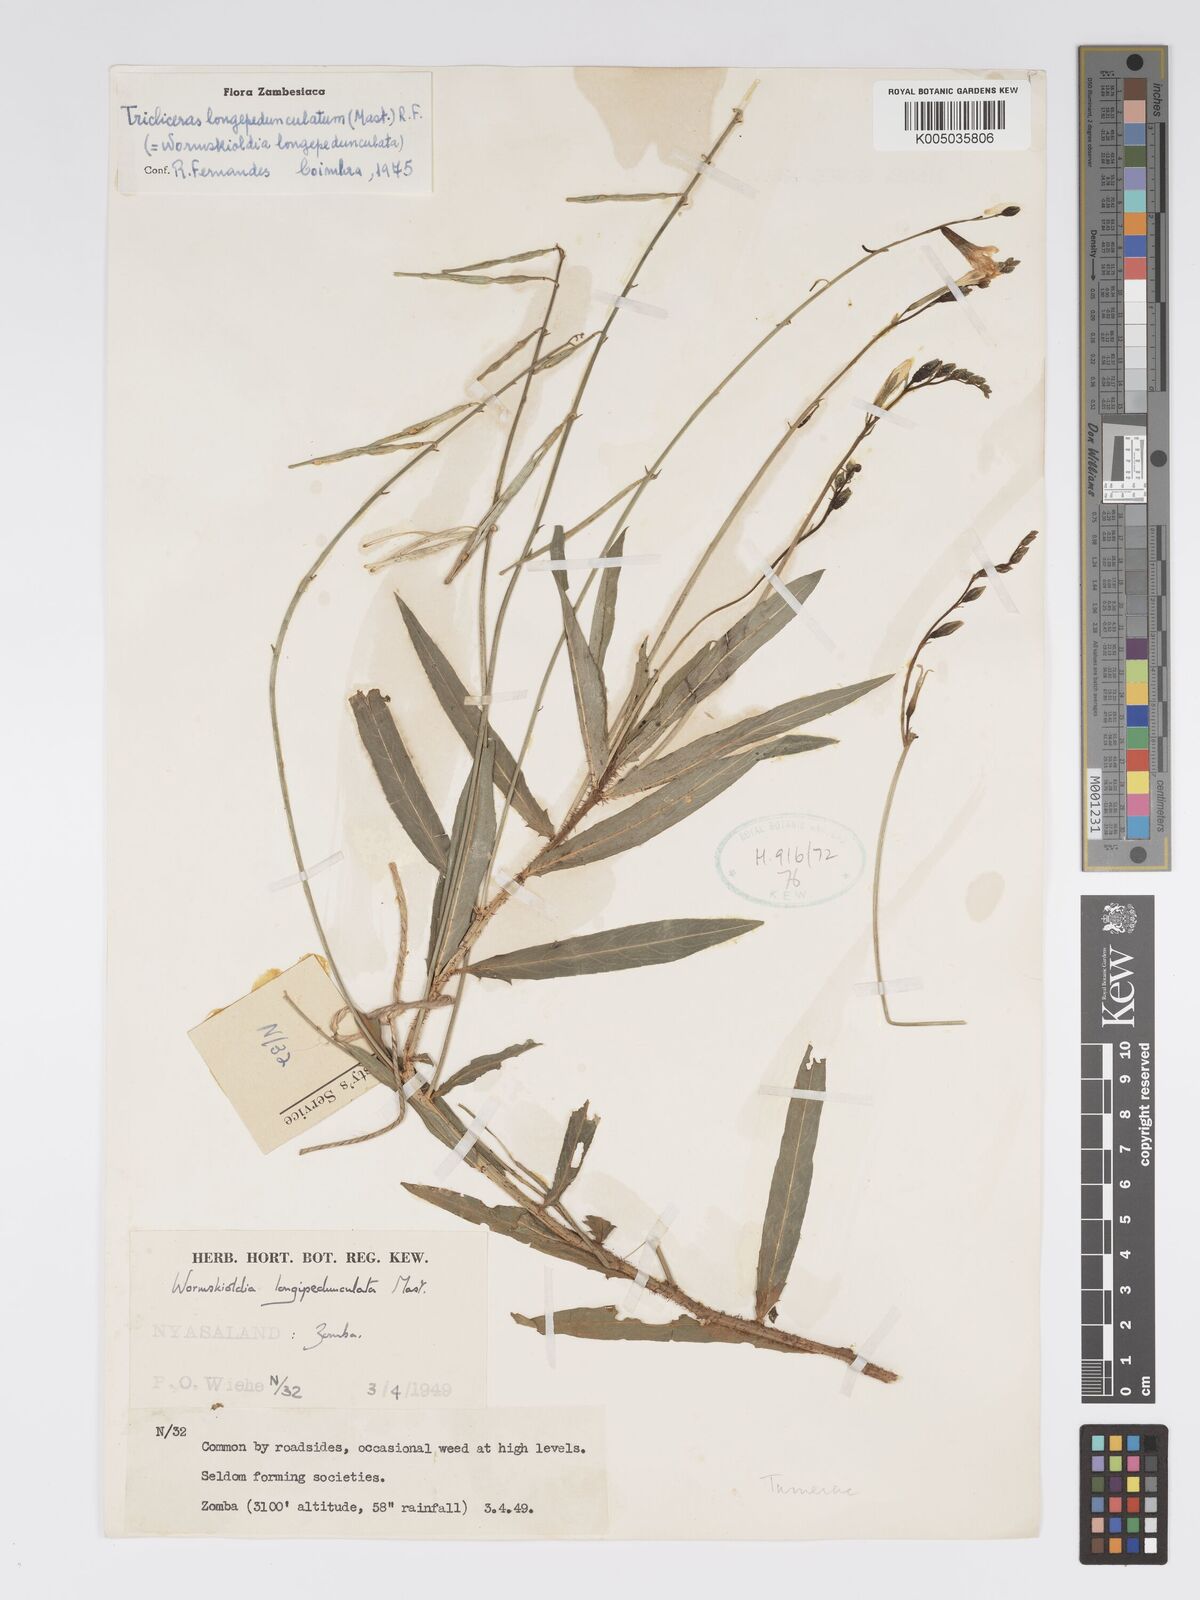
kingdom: Plantae
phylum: Tracheophyta
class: Magnoliopsida
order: Malpighiales
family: Turneraceae
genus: Tricliceras
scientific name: Tricliceras longepedunculatum
